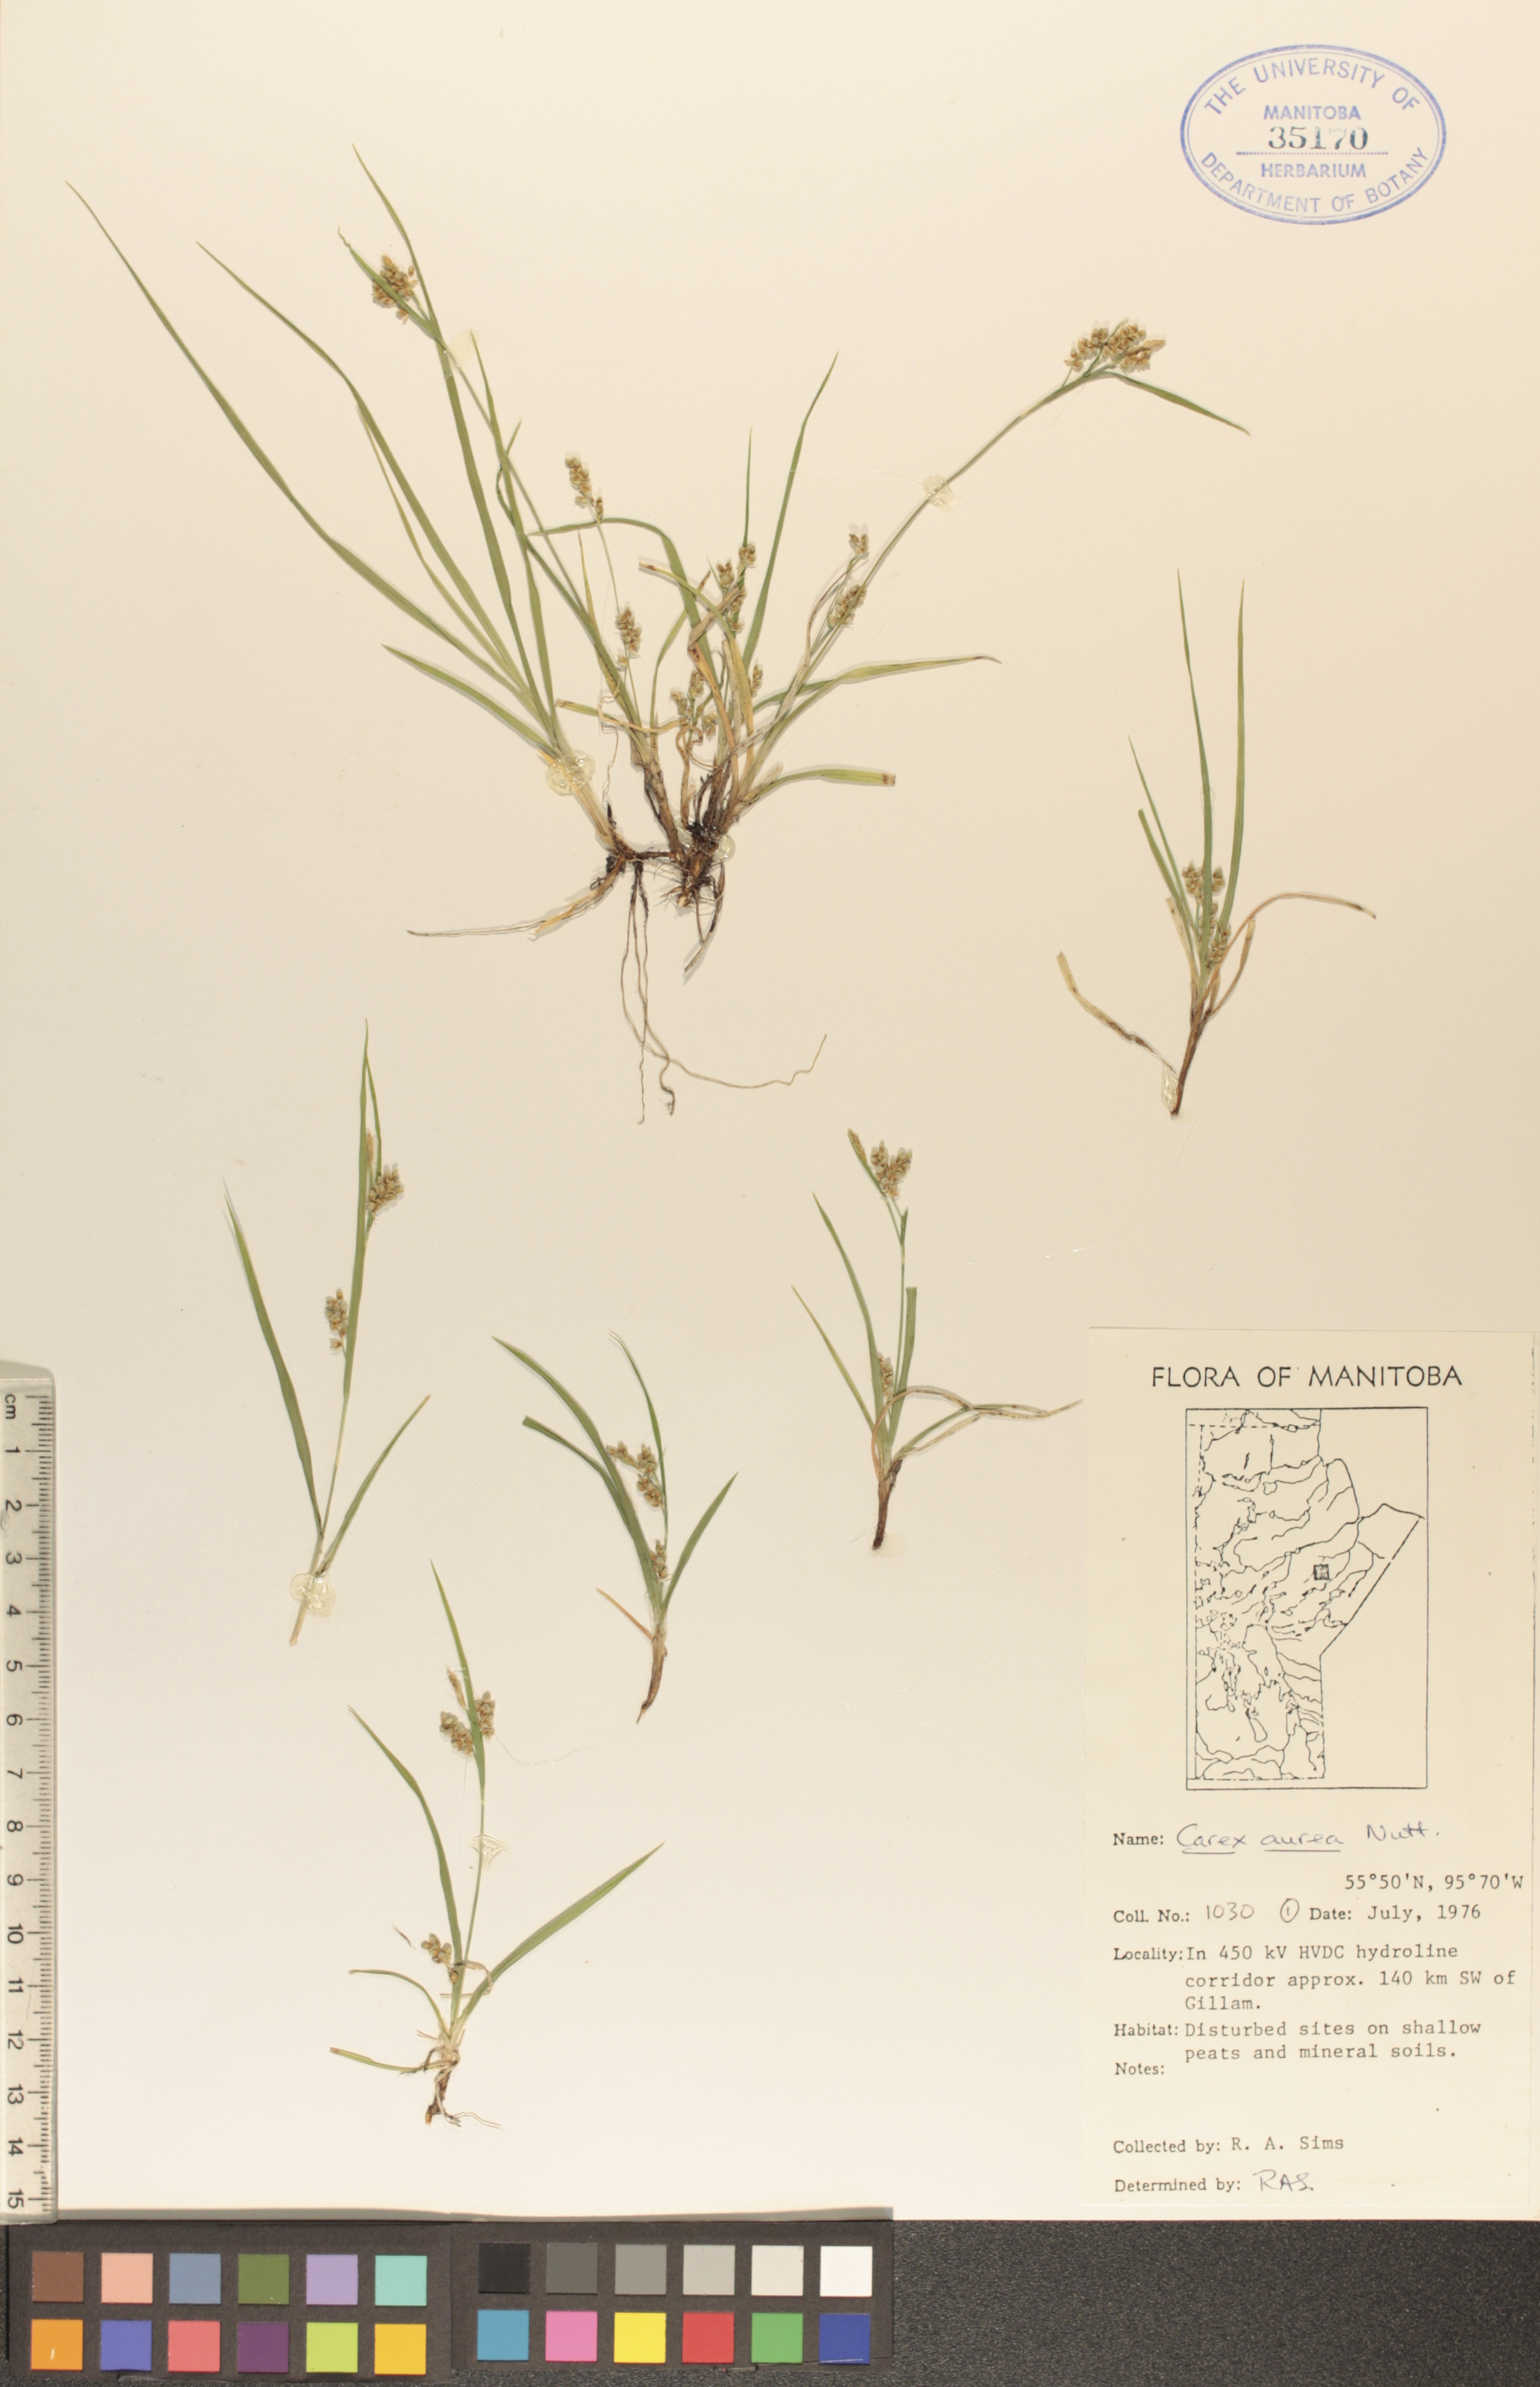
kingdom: Plantae
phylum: Tracheophyta
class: Liliopsida
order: Poales
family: Cyperaceae
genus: Carex
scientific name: Carex aurea
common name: Golden sedge
